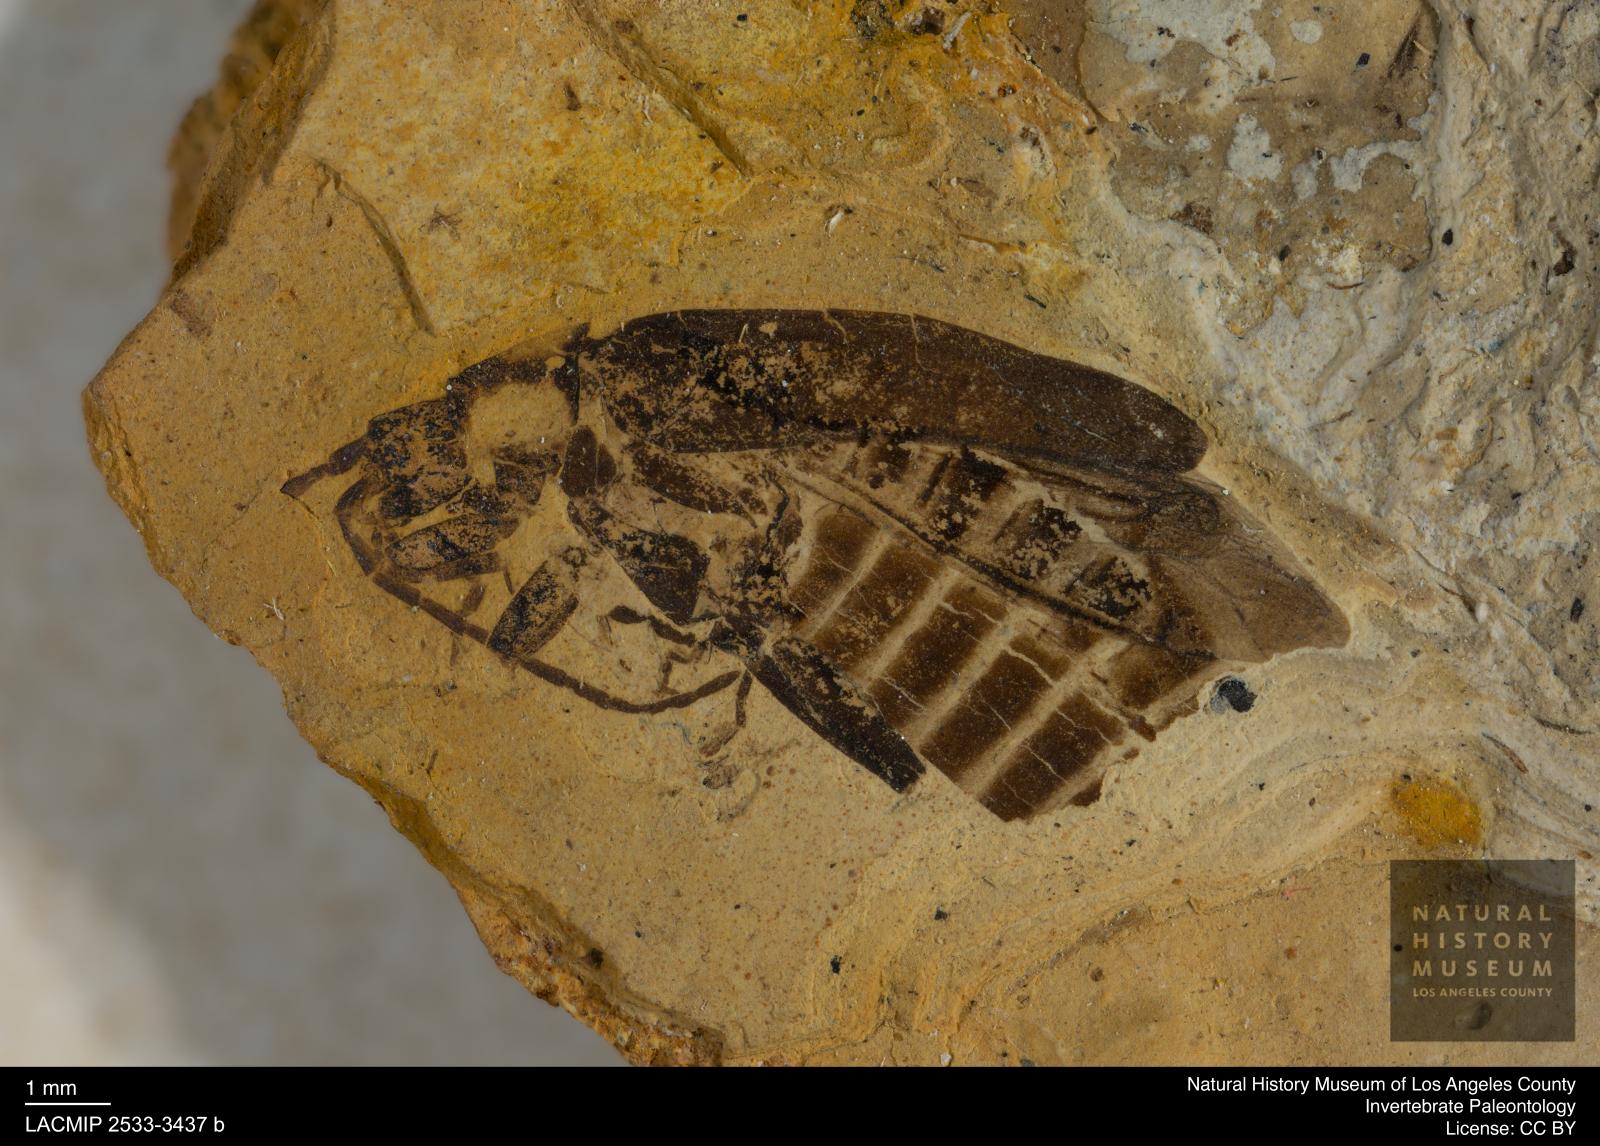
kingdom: Animalia
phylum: Arthropoda
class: Insecta
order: Coleoptera
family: Cantharidae
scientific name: Cantharidae
